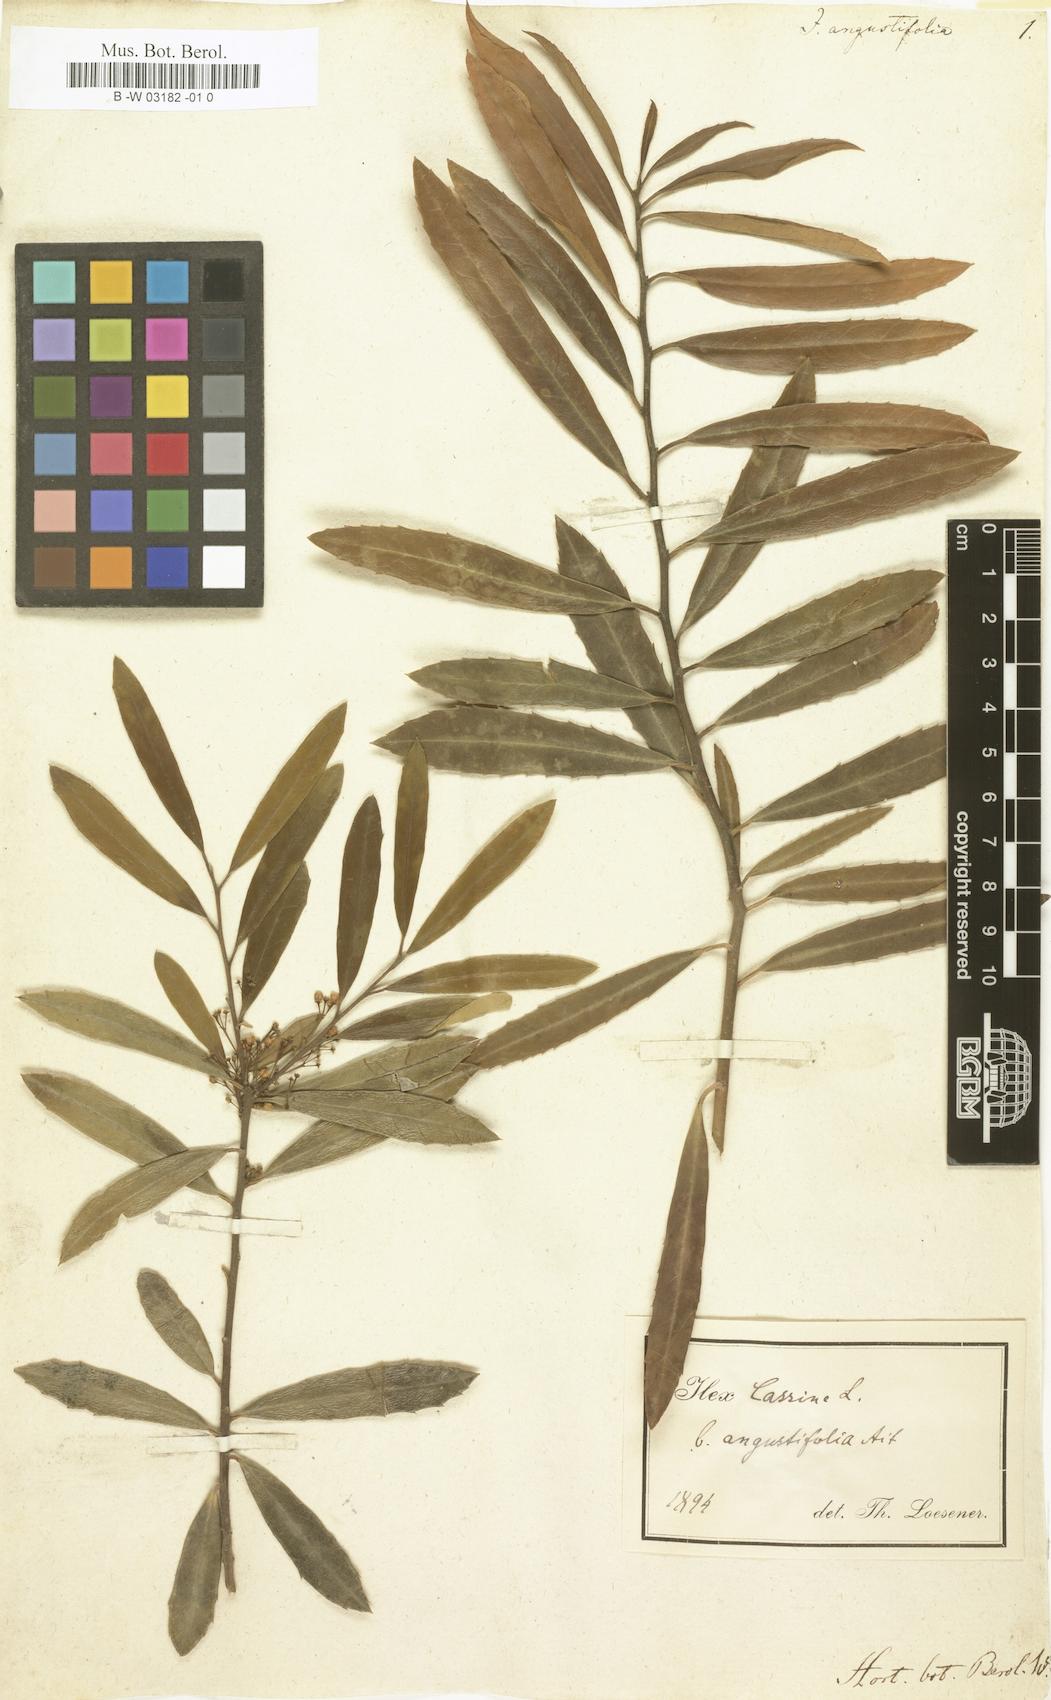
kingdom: Plantae
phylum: Tracheophyta
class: Magnoliopsida
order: Aquifoliales
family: Aquifoliaceae
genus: Ilex
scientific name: Ilex cassine
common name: Dahoon
